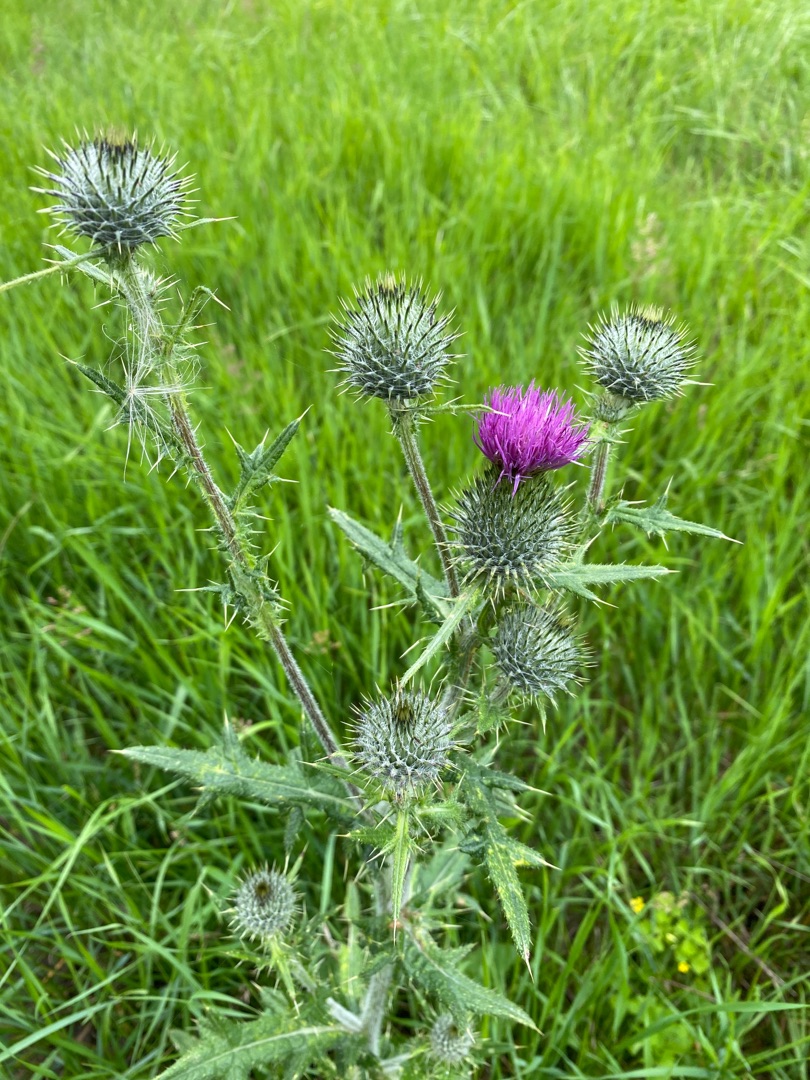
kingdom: Plantae
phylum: Tracheophyta
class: Magnoliopsida
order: Asterales
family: Asteraceae
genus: Cirsium
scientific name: Cirsium vulgare
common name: Horse-tidsel
